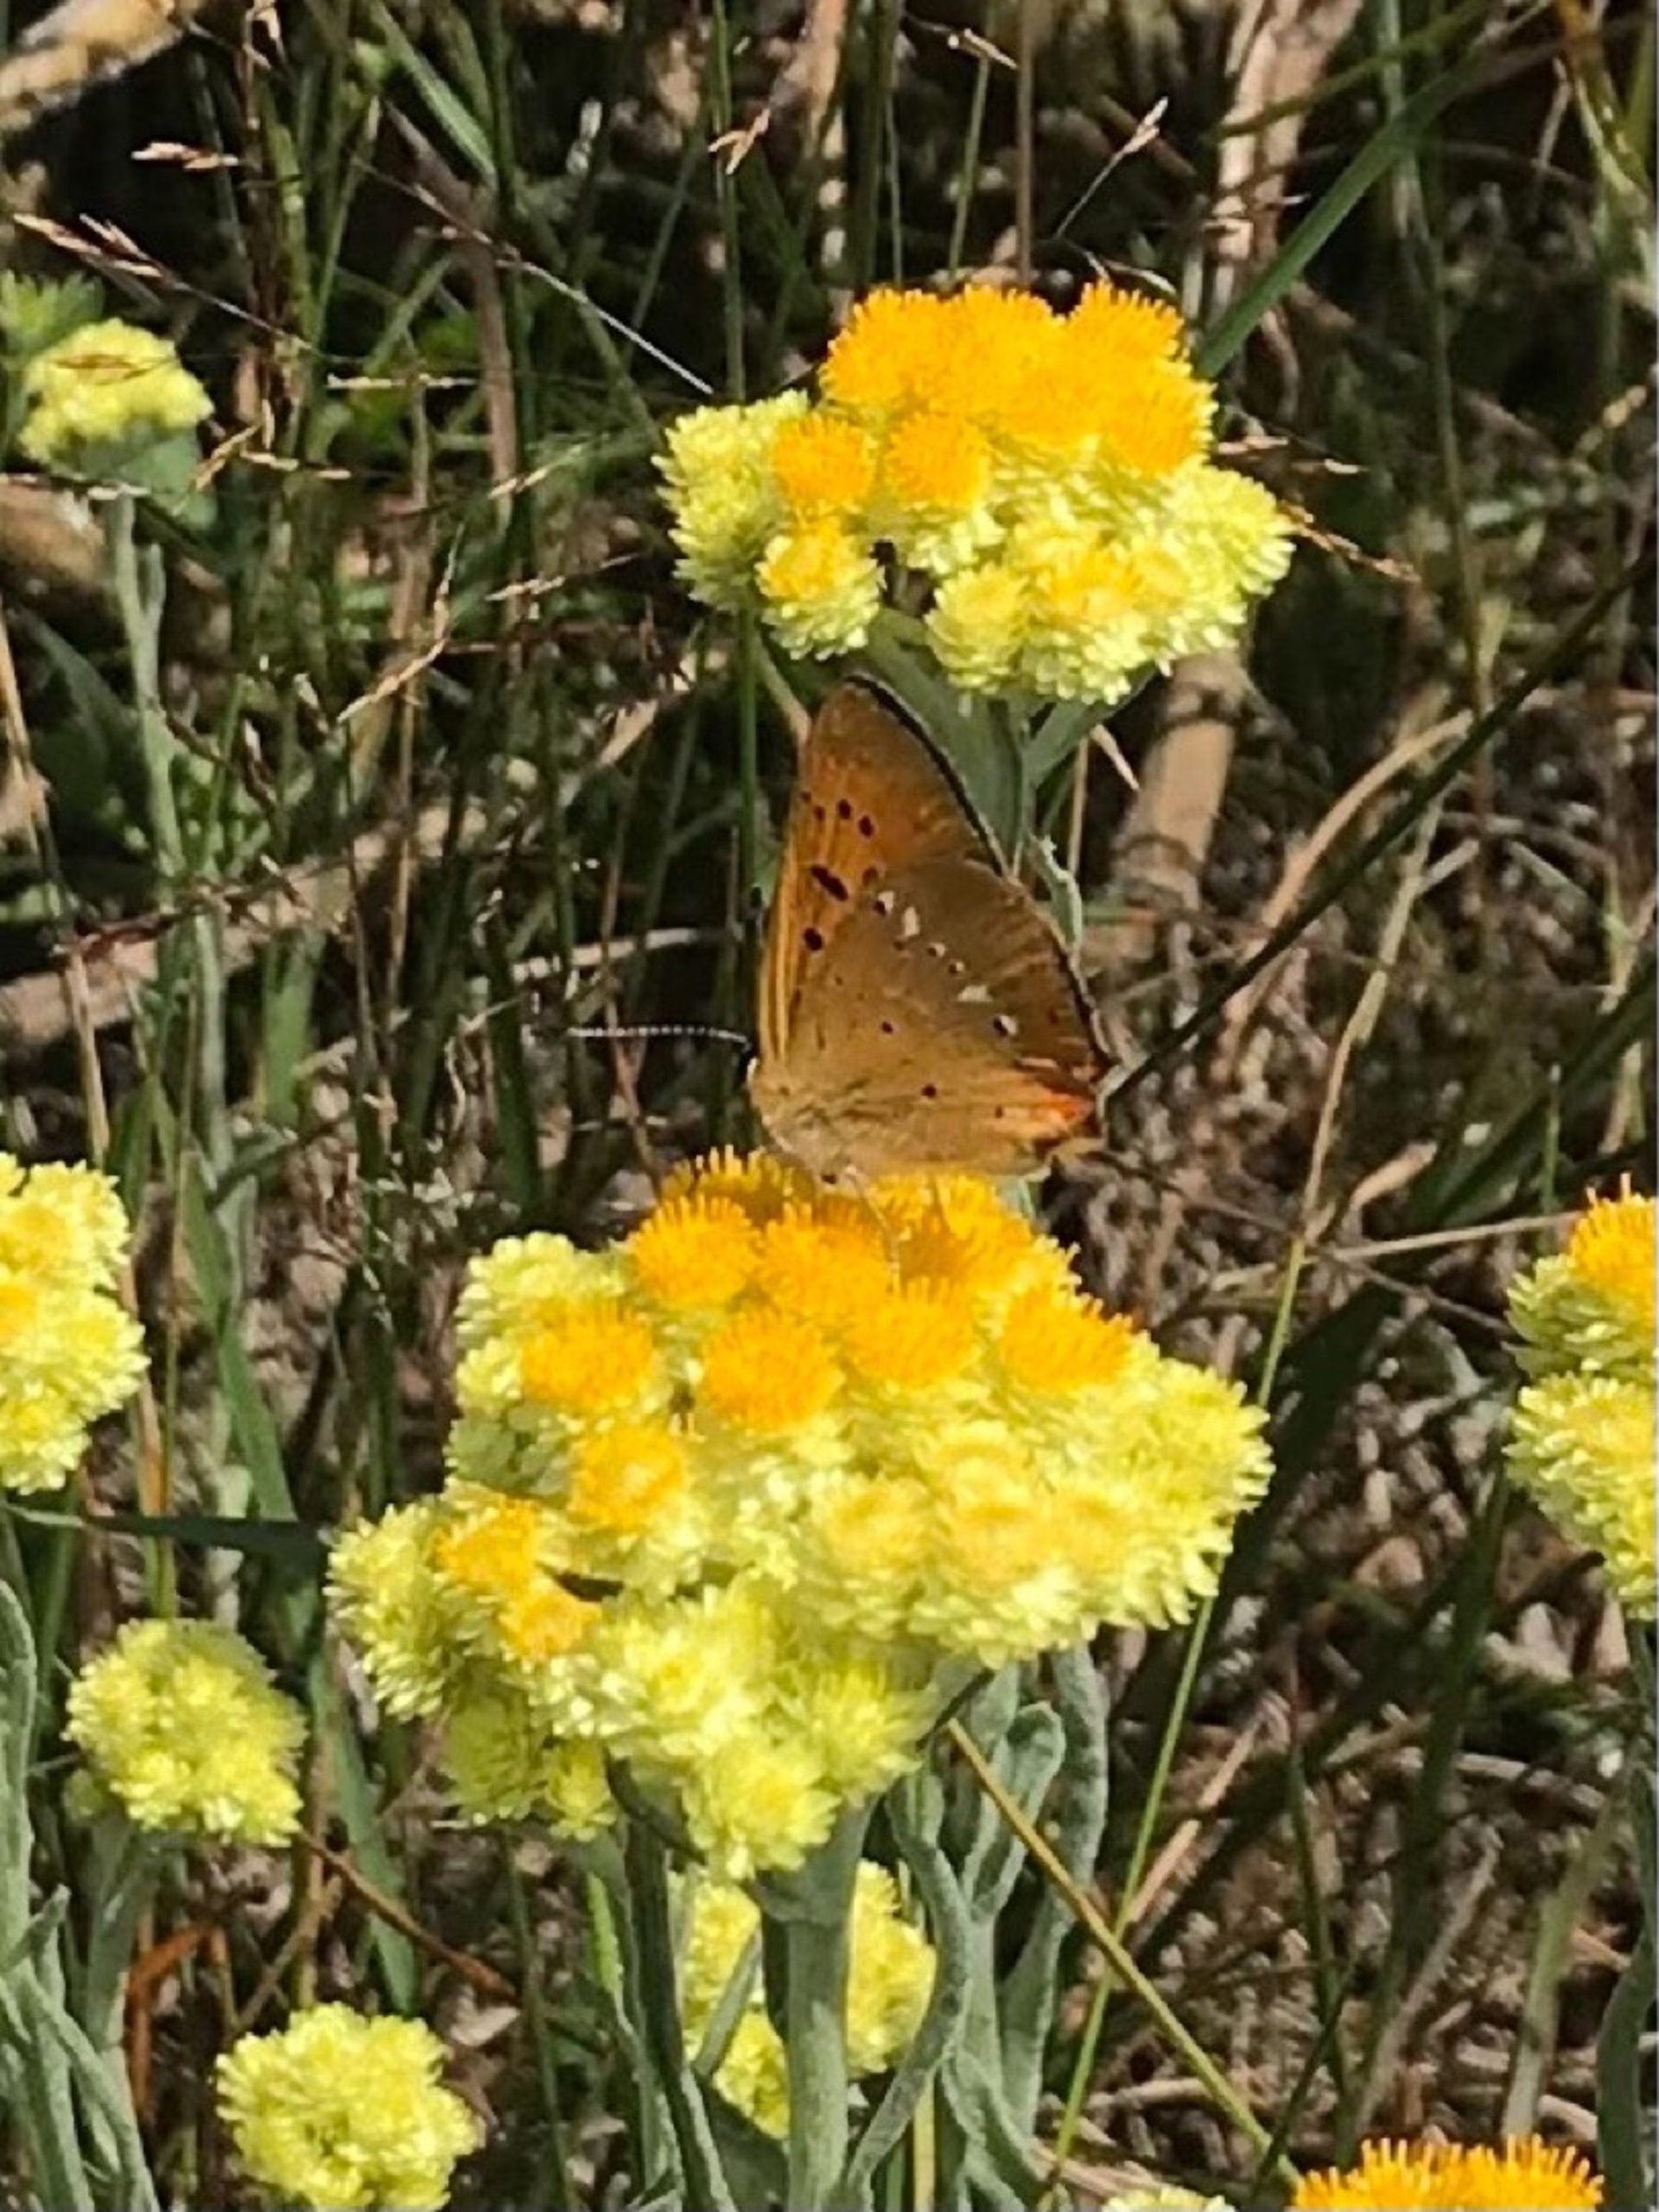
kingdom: Animalia
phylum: Arthropoda
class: Insecta
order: Lepidoptera
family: Lycaenidae
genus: Lycaena
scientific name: Lycaena virgaureae
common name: Dukatsommerfugl
